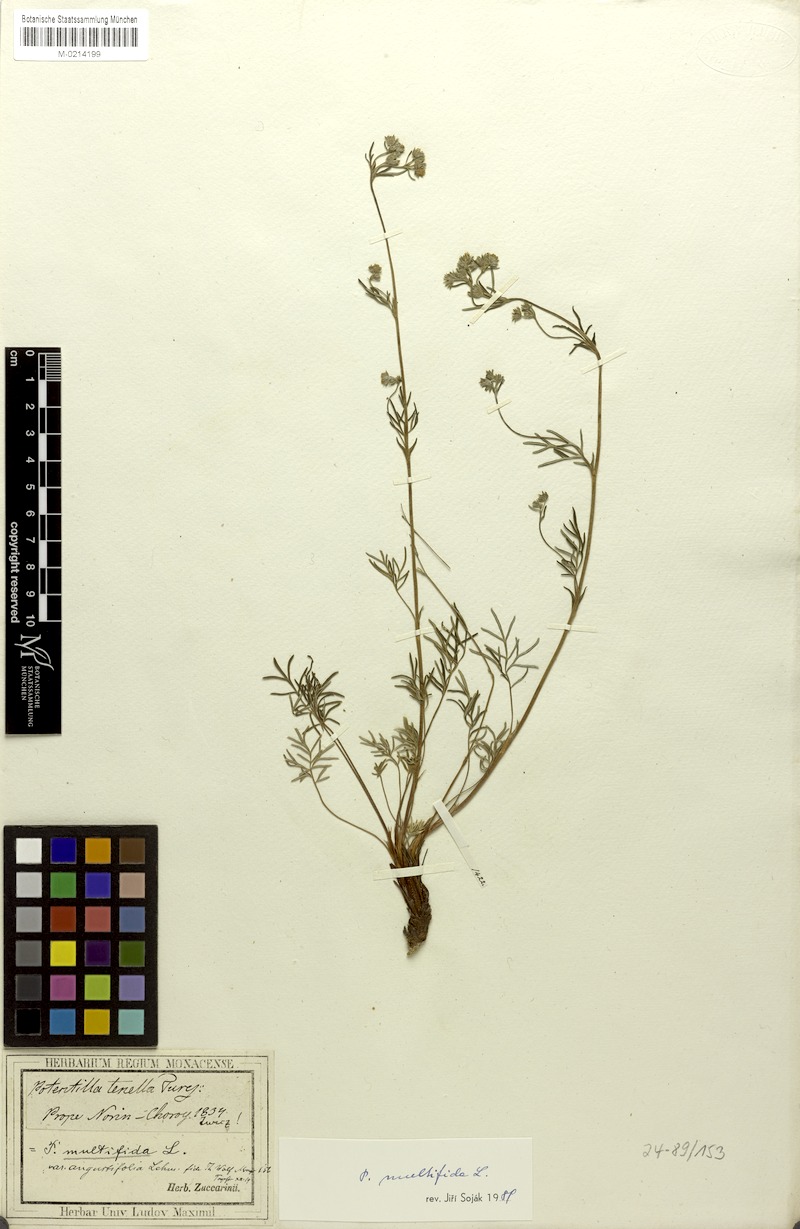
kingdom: Plantae
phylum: Tracheophyta
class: Magnoliopsida
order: Rosales
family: Rosaceae
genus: Potentilla
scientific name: Potentilla multifida
